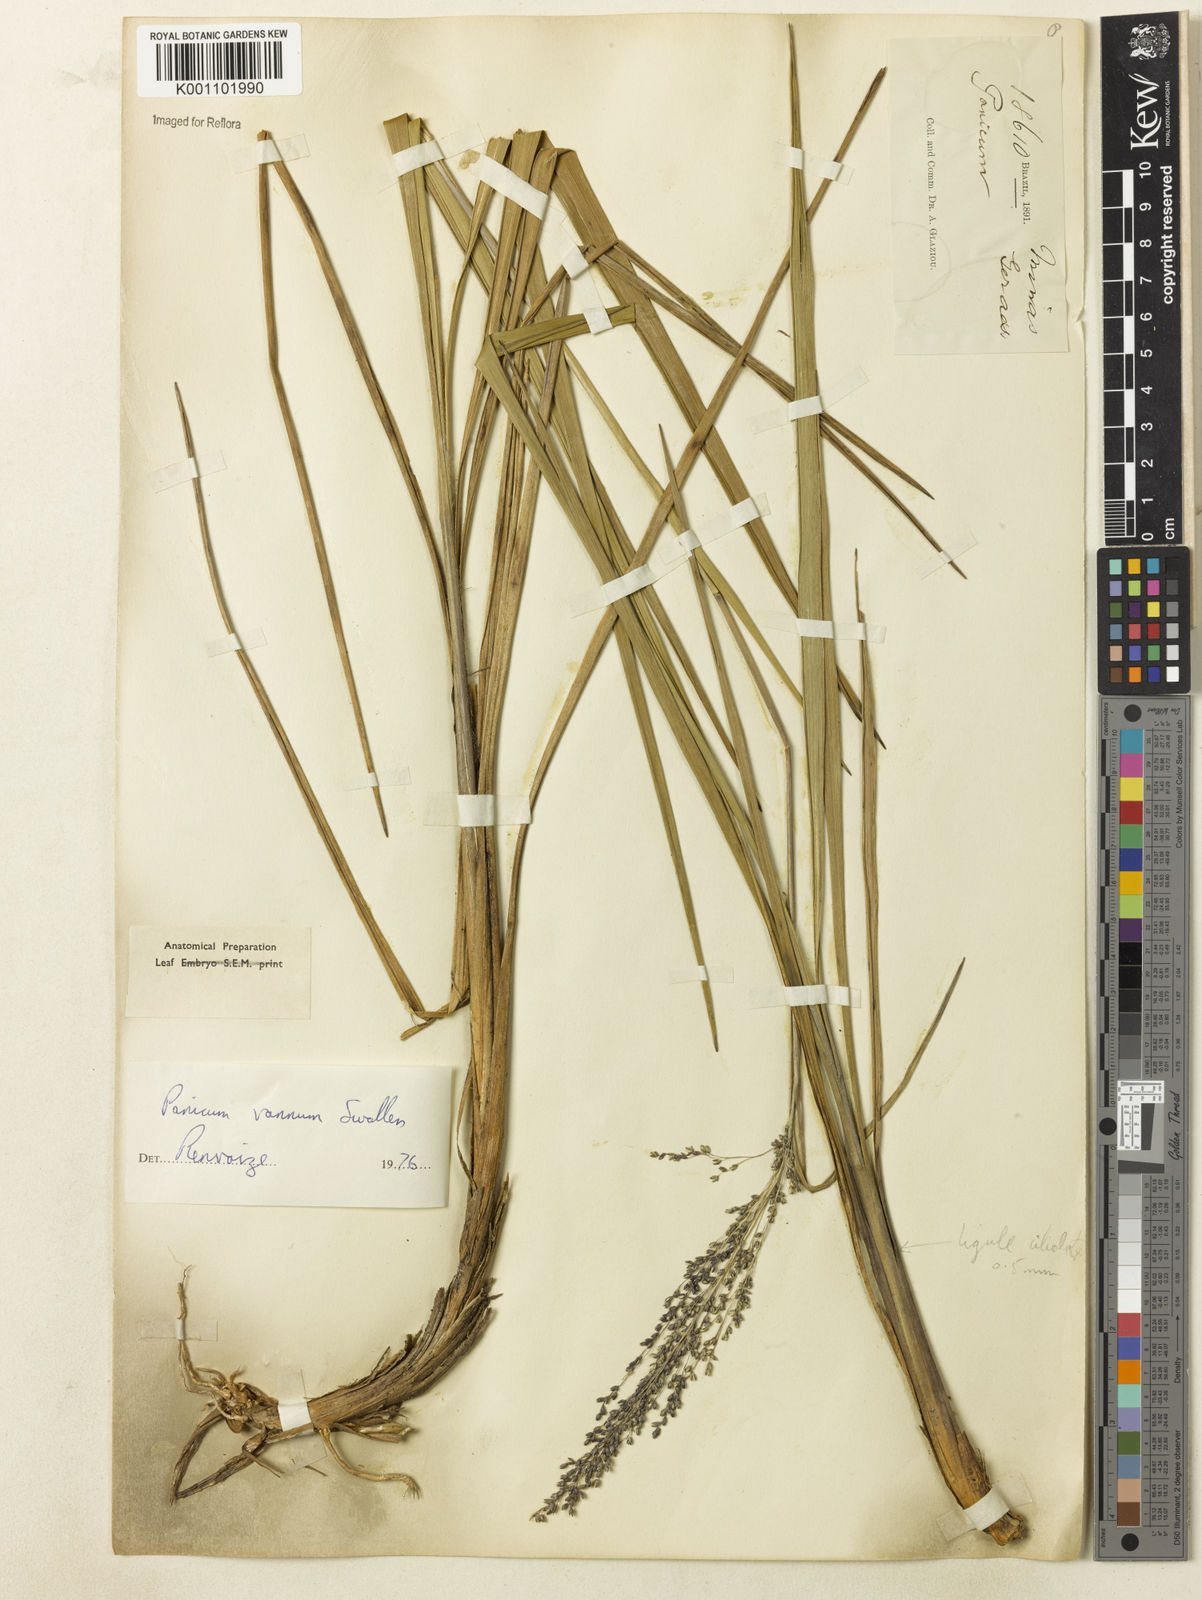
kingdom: Plantae
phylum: Tracheophyta
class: Liliopsida
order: Poales
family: Poaceae
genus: Apochloa
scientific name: Apochloa chnoodes
